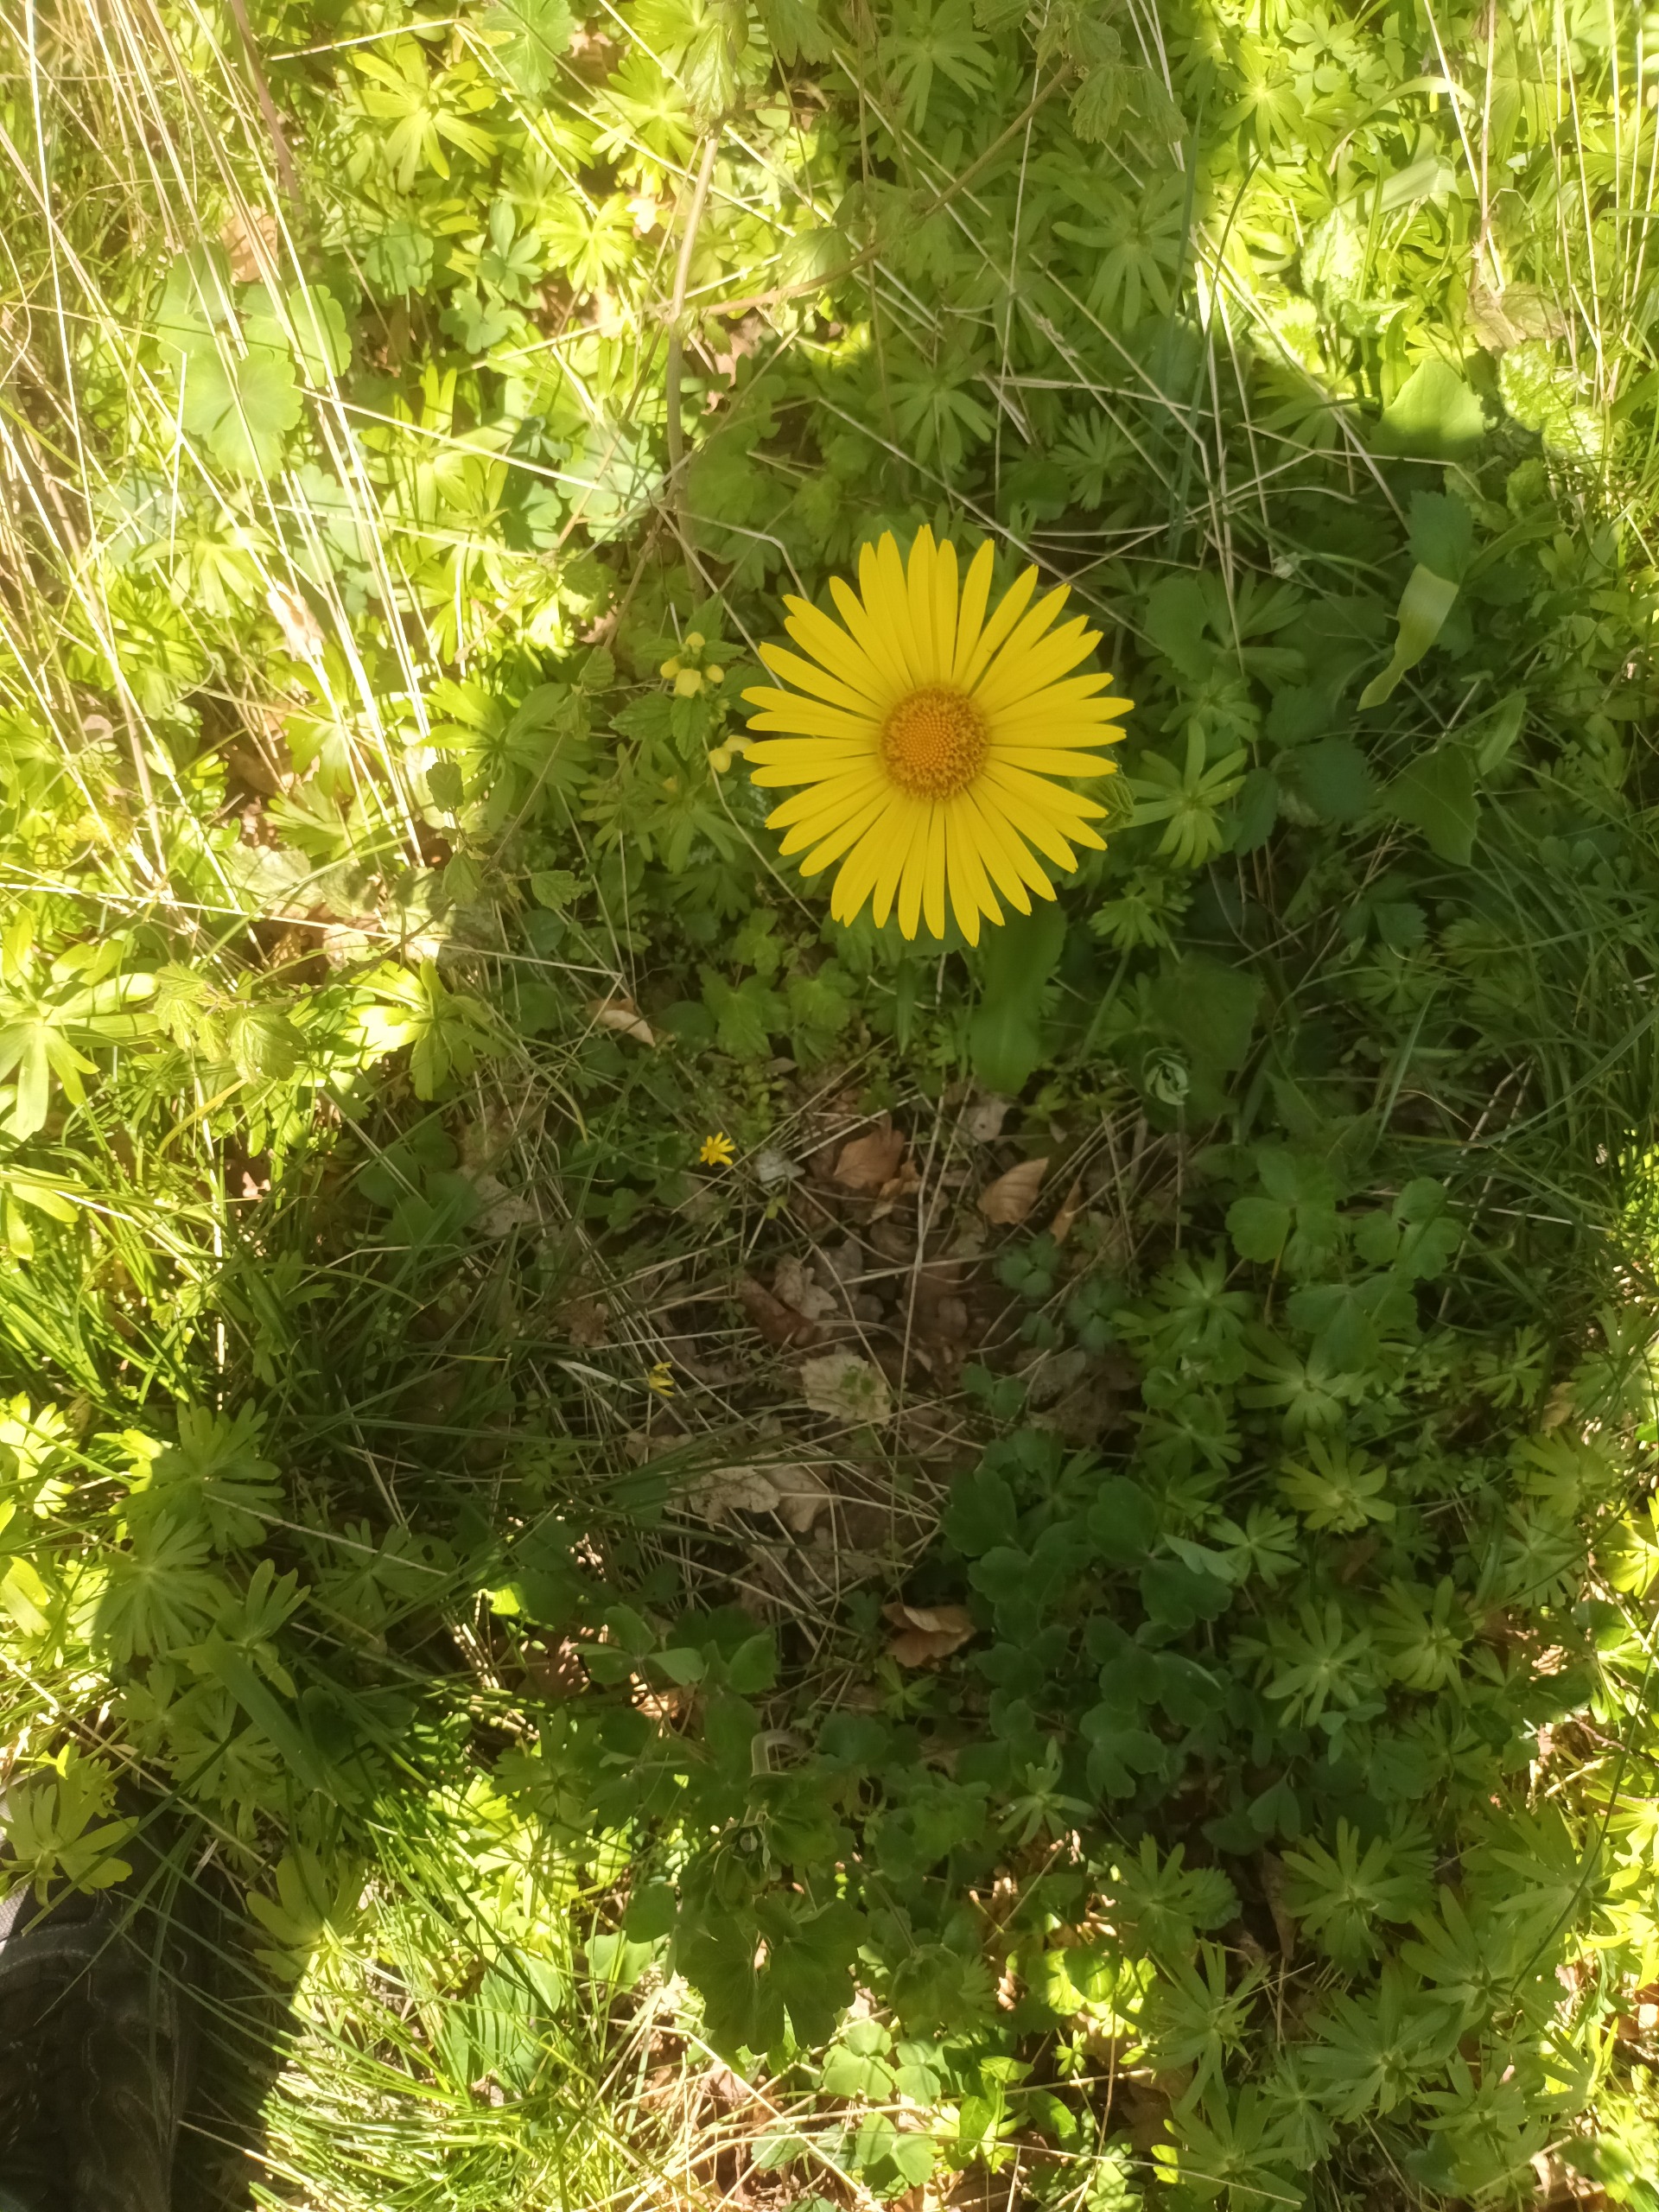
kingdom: Plantae
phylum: Tracheophyta
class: Magnoliopsida
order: Asterales
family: Asteraceae
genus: Doronicum
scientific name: Doronicum excelsum
